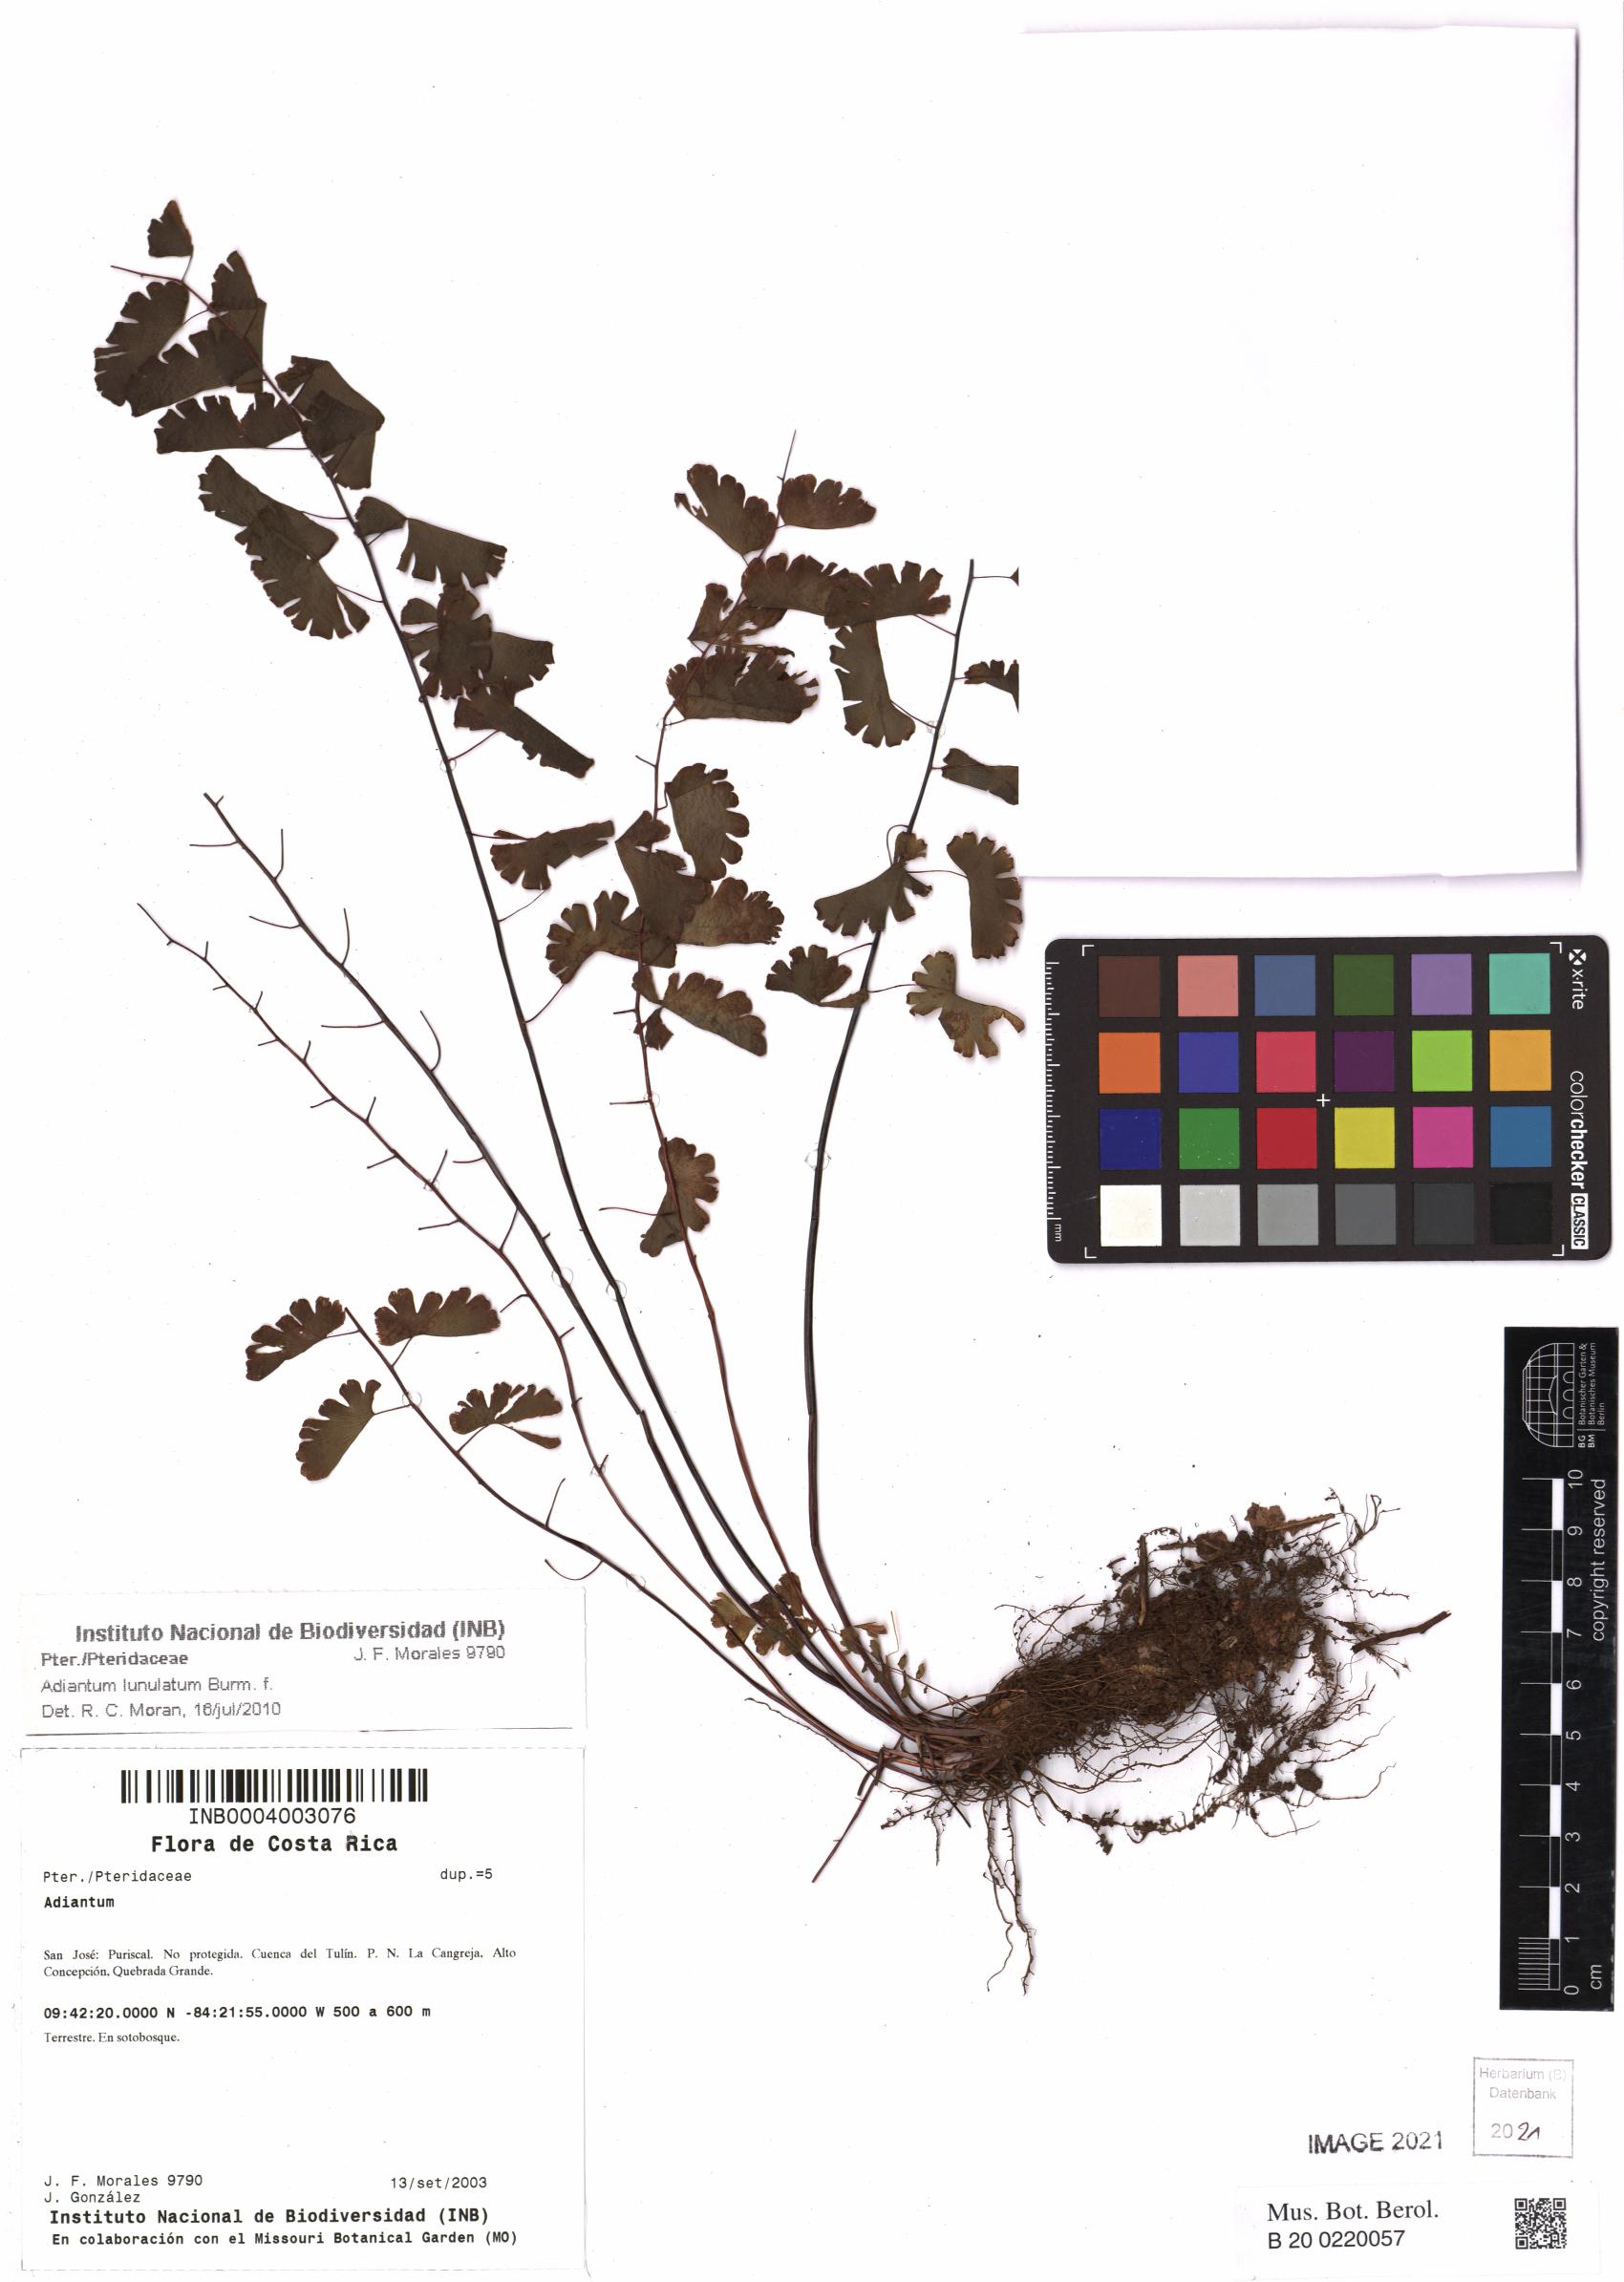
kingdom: Plantae
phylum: Tracheophyta
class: Polypodiopsida
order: Polypodiales
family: Pteridaceae
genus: Adiantum
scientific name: Adiantum philippense
